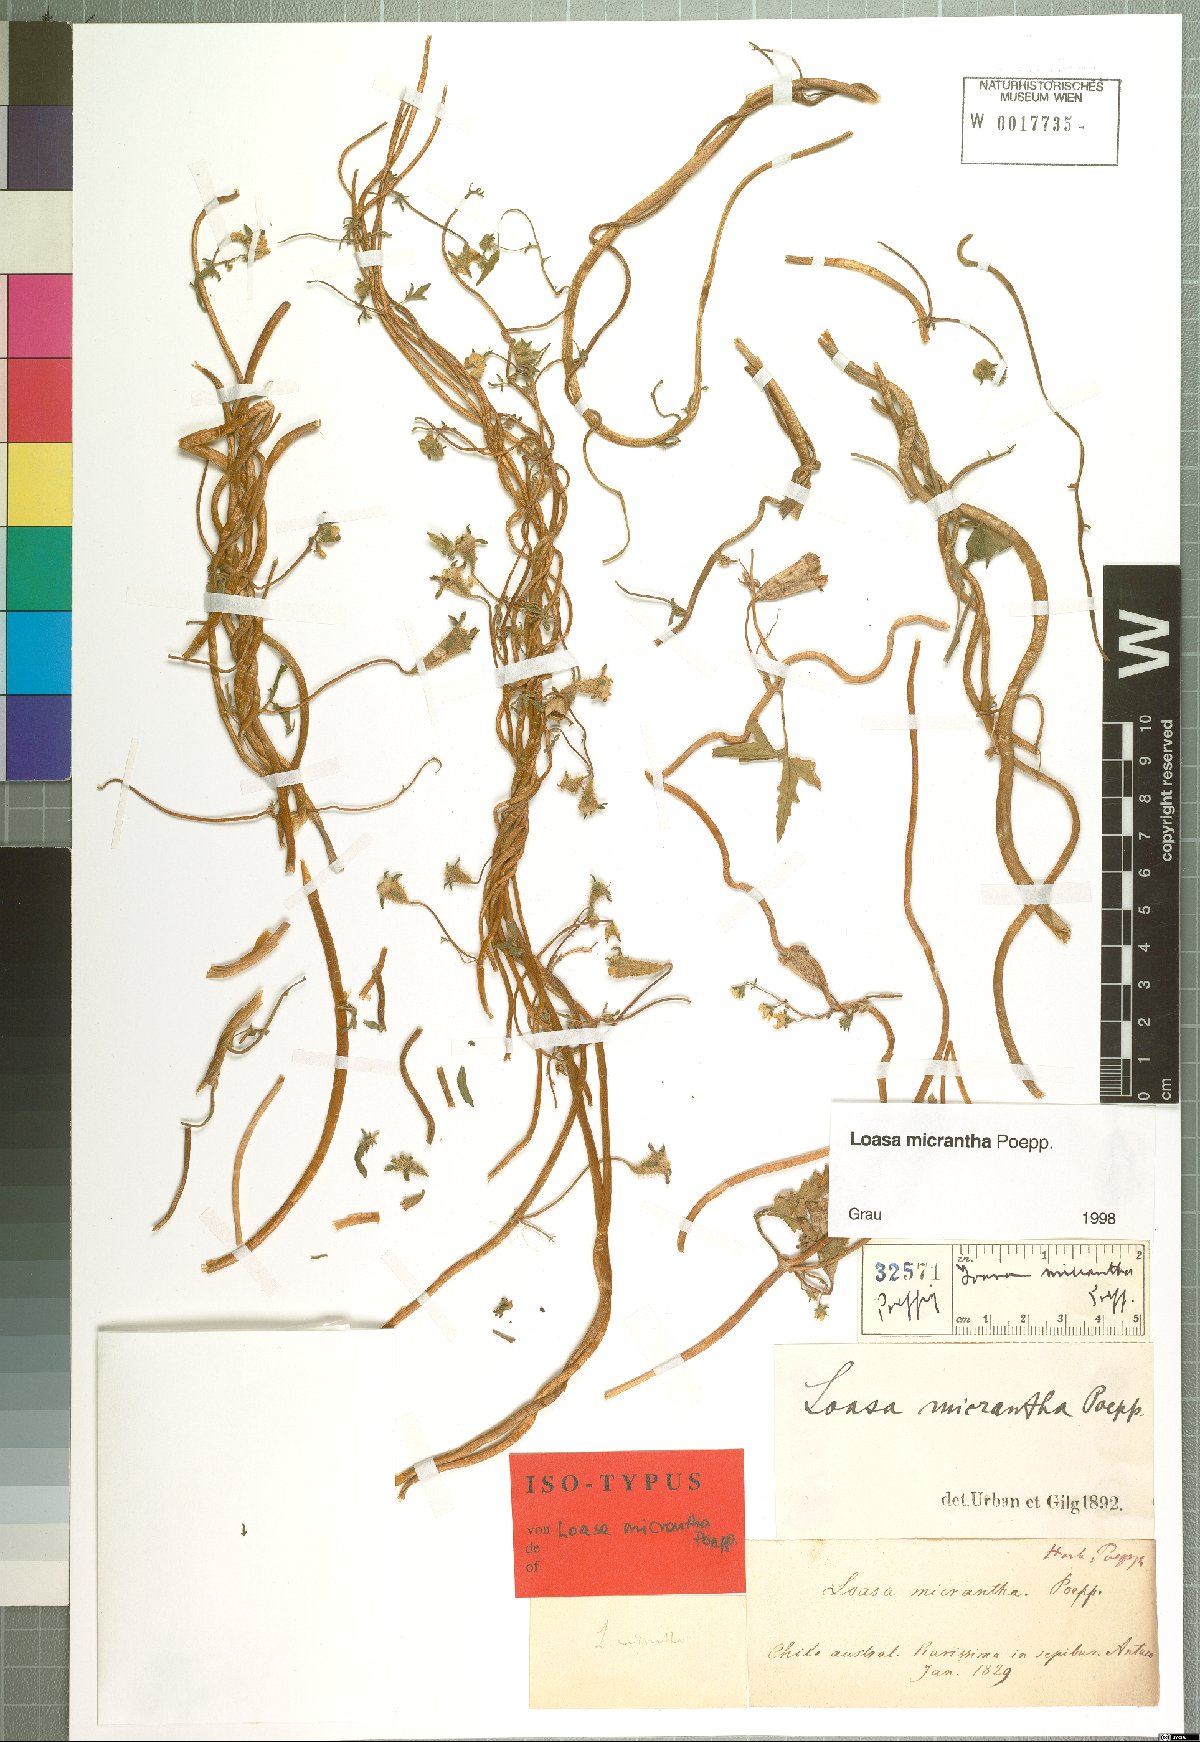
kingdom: Plantae
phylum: Tracheophyta
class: Magnoliopsida
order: Cornales
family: Loasaceae
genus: Grausa
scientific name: Grausa micrantha
